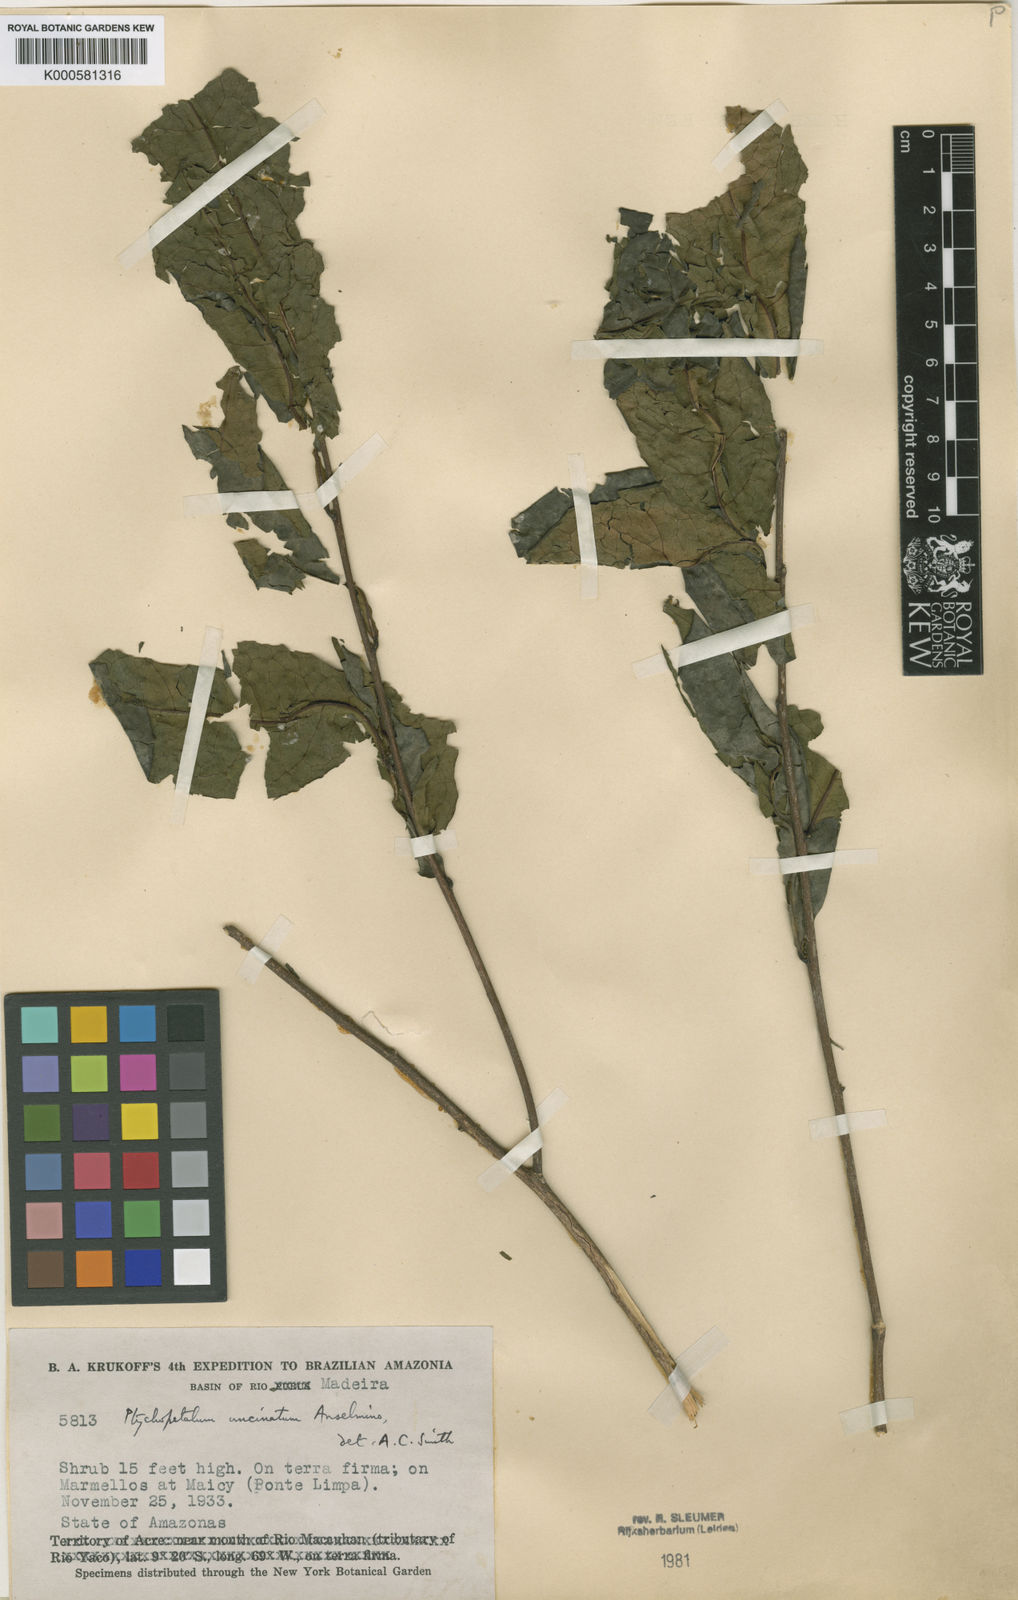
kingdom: Plantae
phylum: Tracheophyta
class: Magnoliopsida
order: Santalales
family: Olacaceae
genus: Ptychopetalum
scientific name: Ptychopetalum uncinatum
